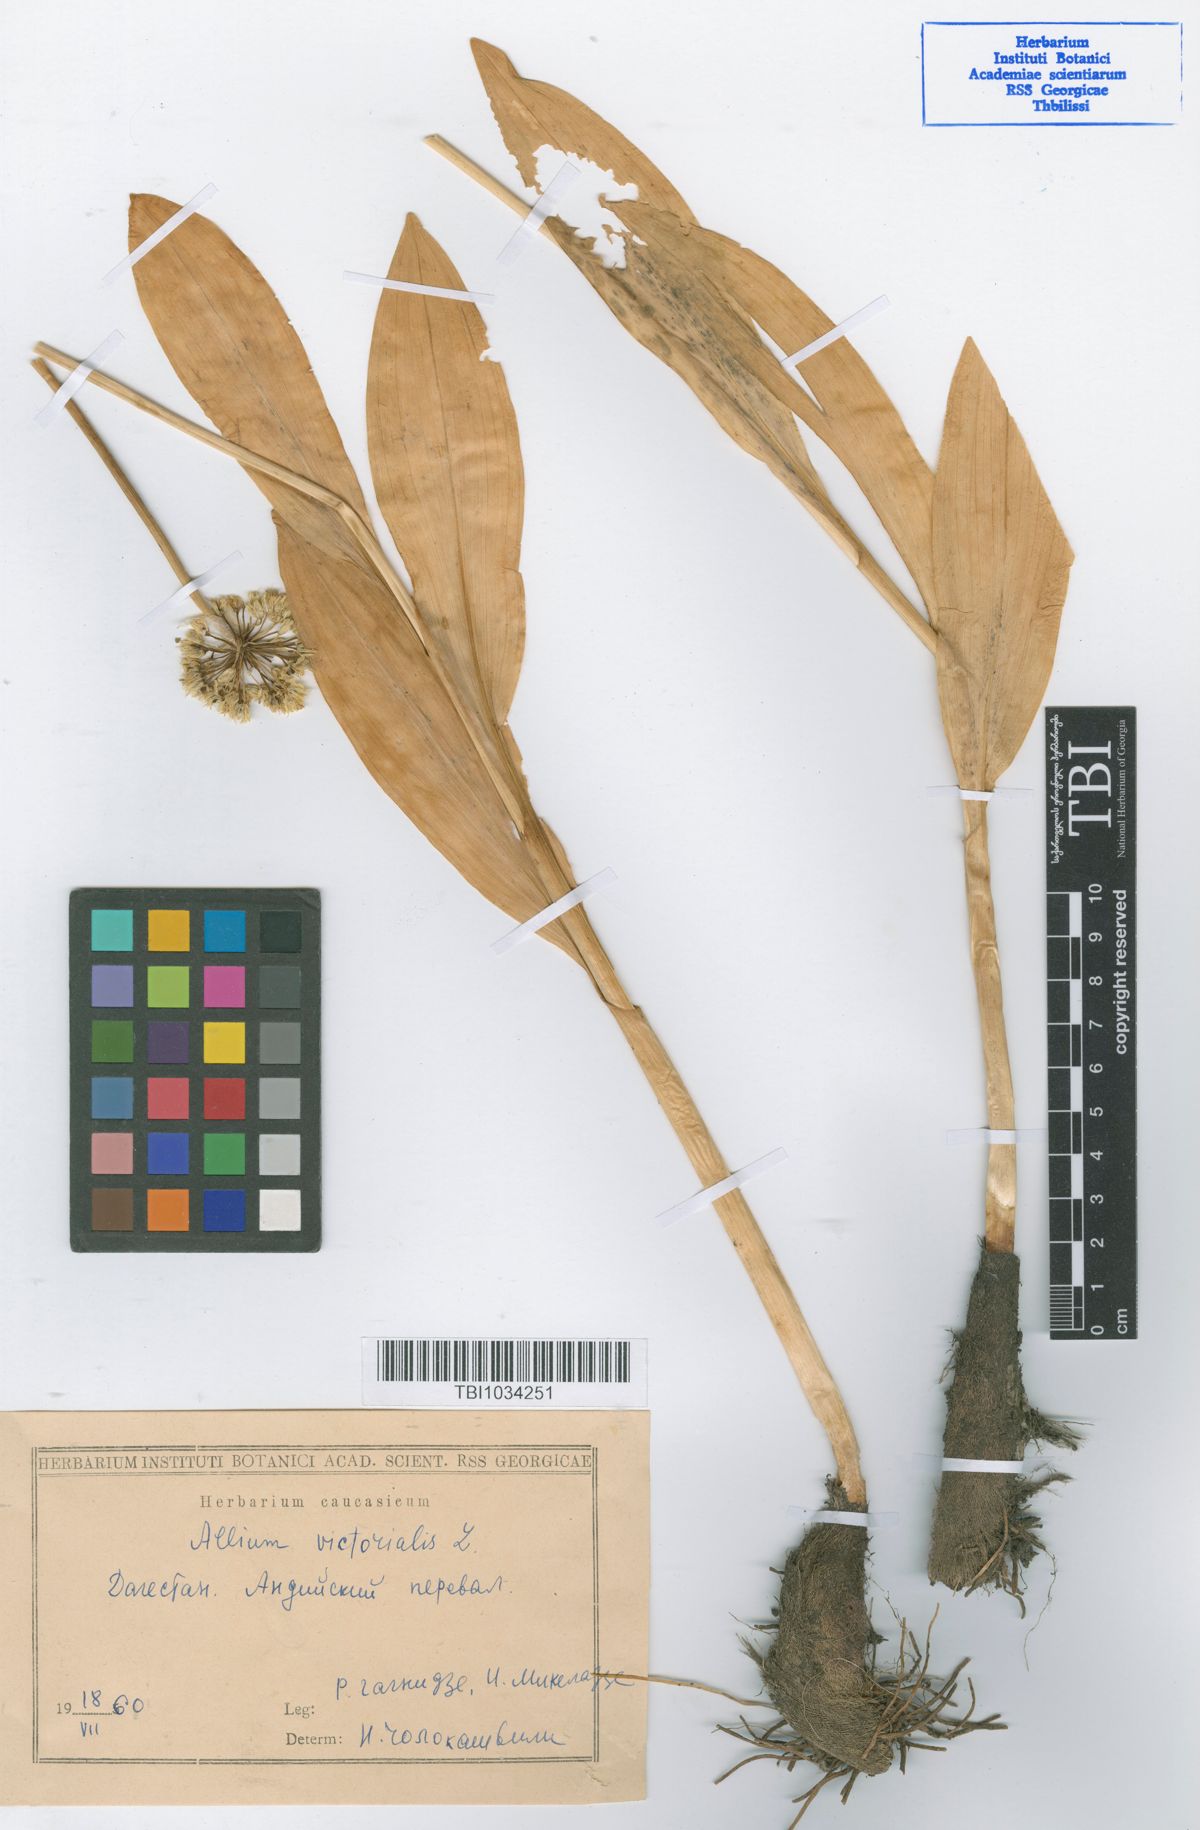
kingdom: Plantae
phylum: Tracheophyta
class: Liliopsida
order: Asparagales
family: Amaryllidaceae
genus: Allium
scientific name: Allium victorialis
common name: Alpine leek
